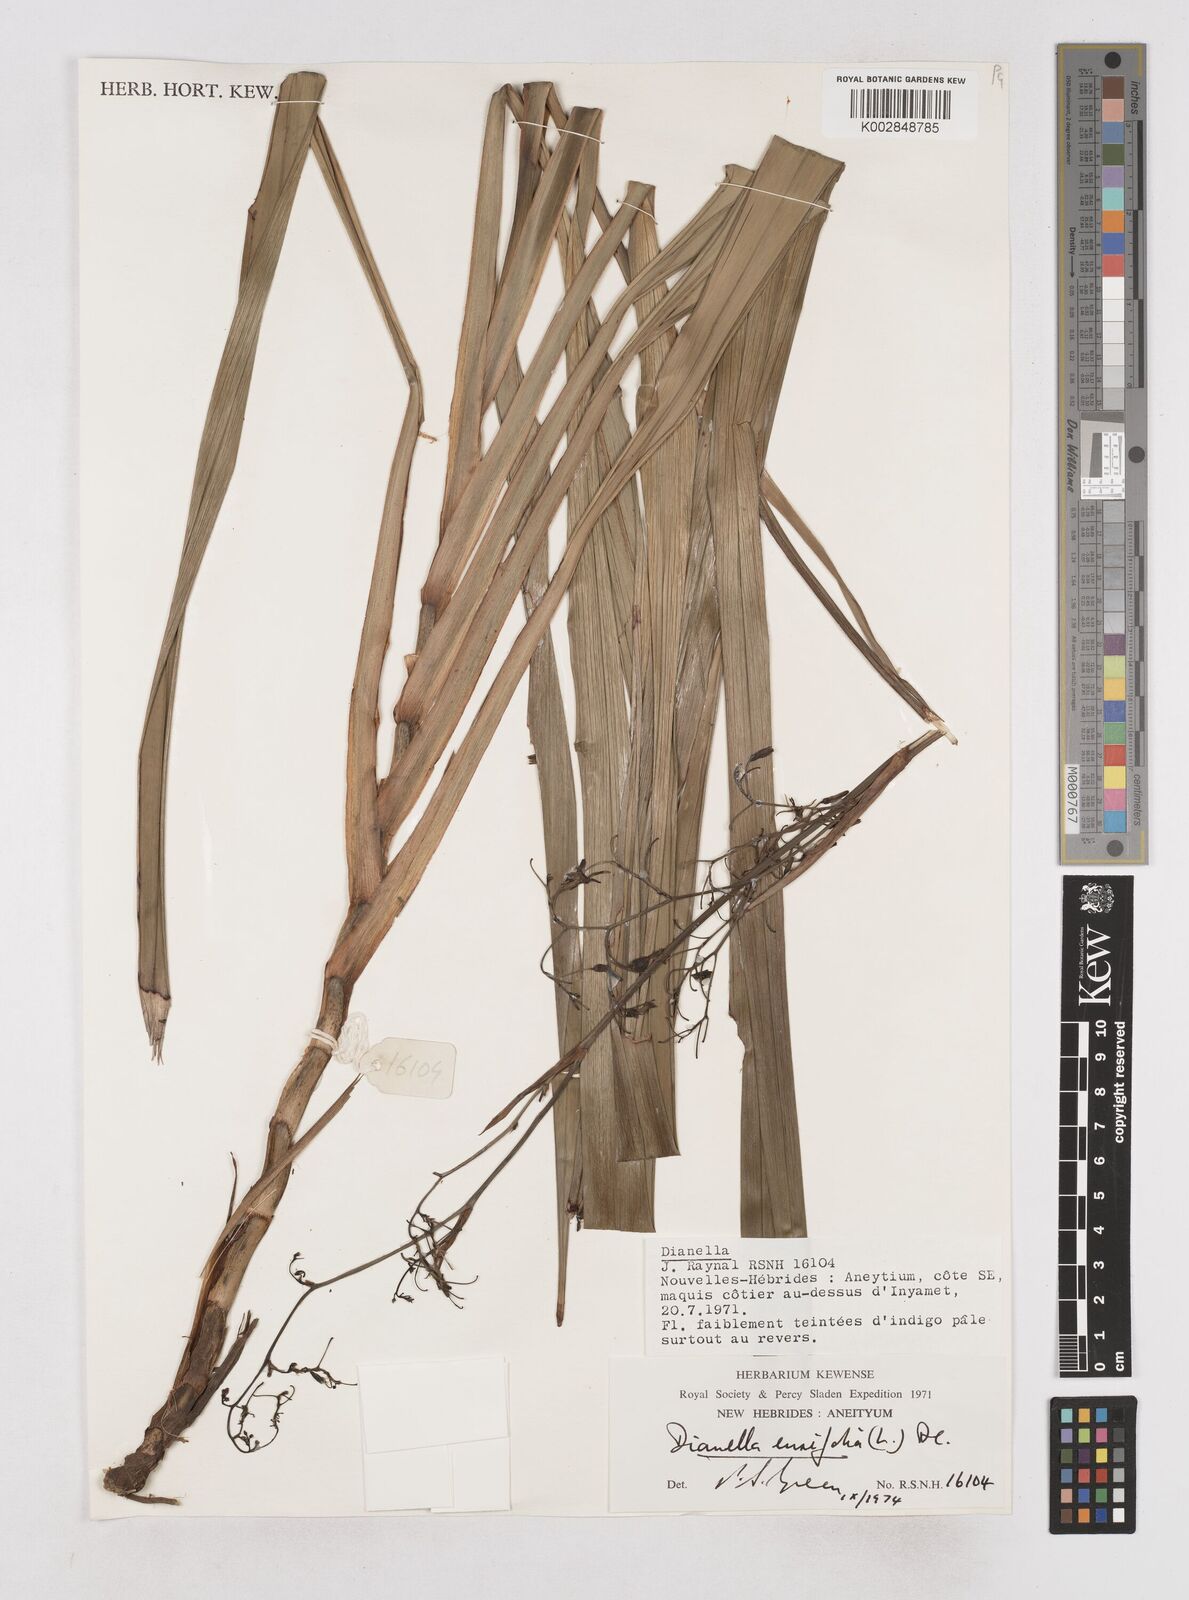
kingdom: Plantae
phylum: Tracheophyta
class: Liliopsida
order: Asparagales
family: Asphodelaceae
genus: Dianella
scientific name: Dianella ensifolia
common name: New zealand lilyplant
